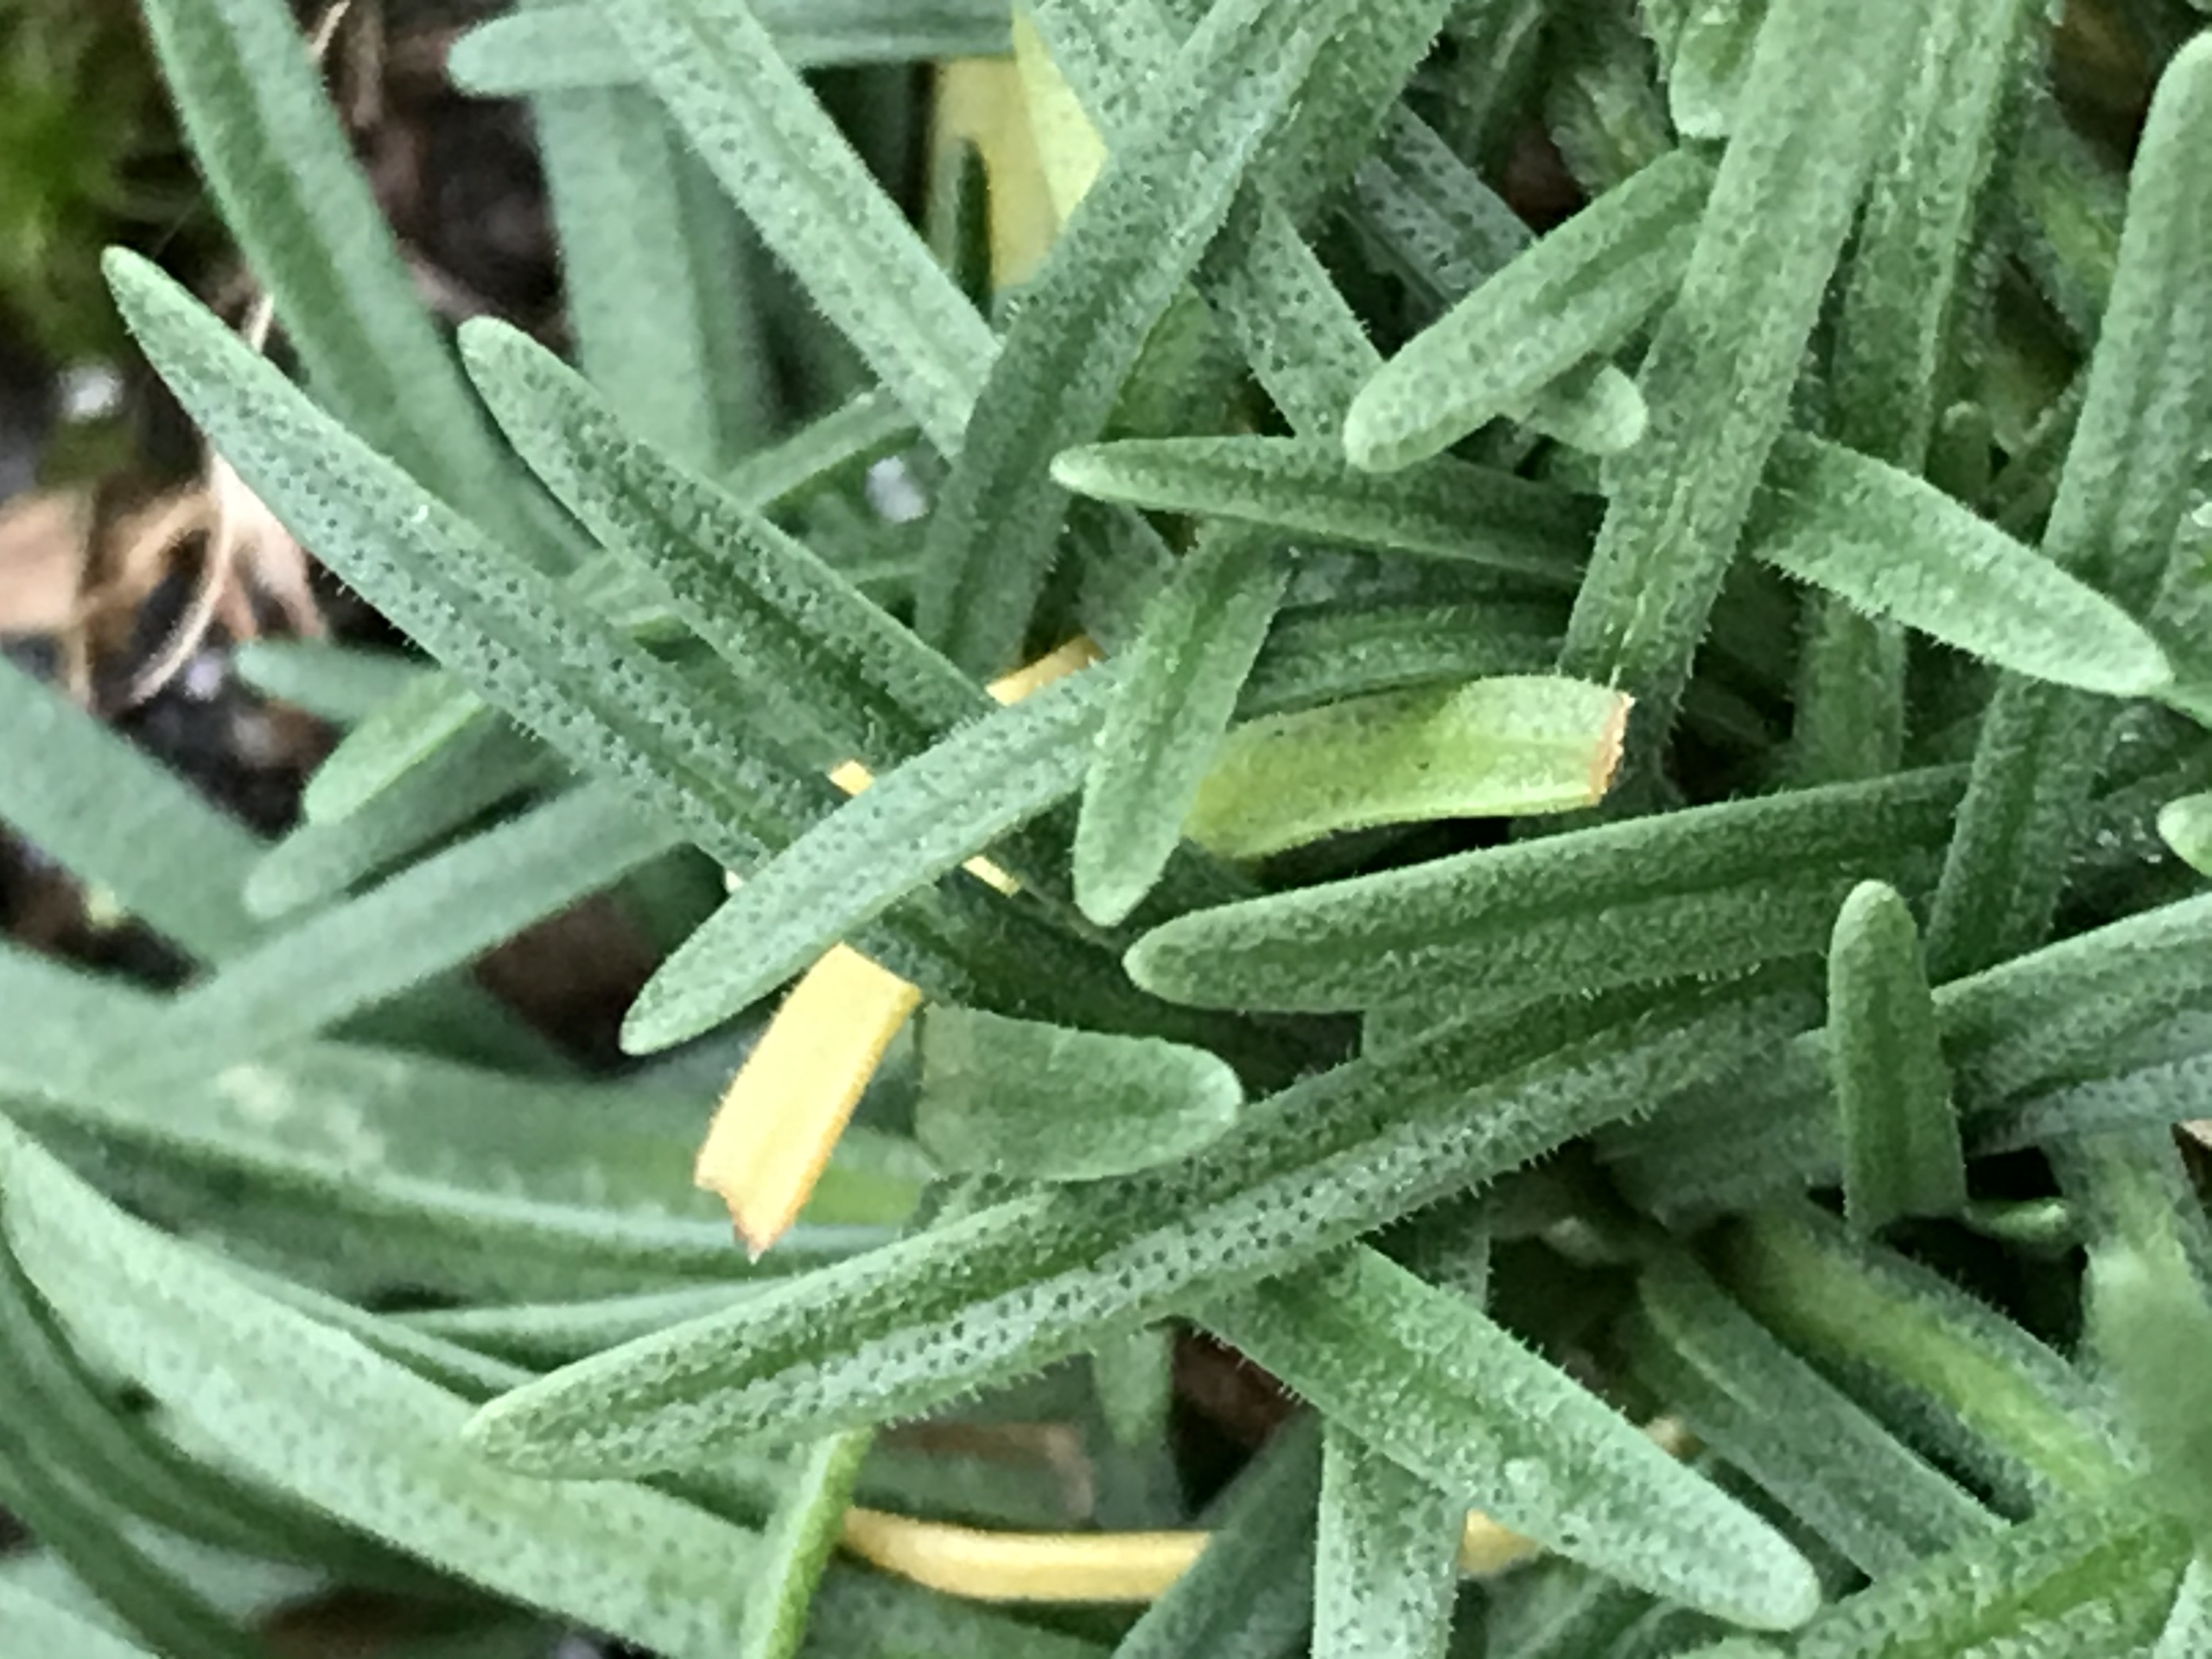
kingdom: Plantae
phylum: Tracheophyta
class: Magnoliopsida
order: Caryophyllales
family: Plumbaginaceae
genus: Armeria
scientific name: Armeria maritima
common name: Engelskgræs
